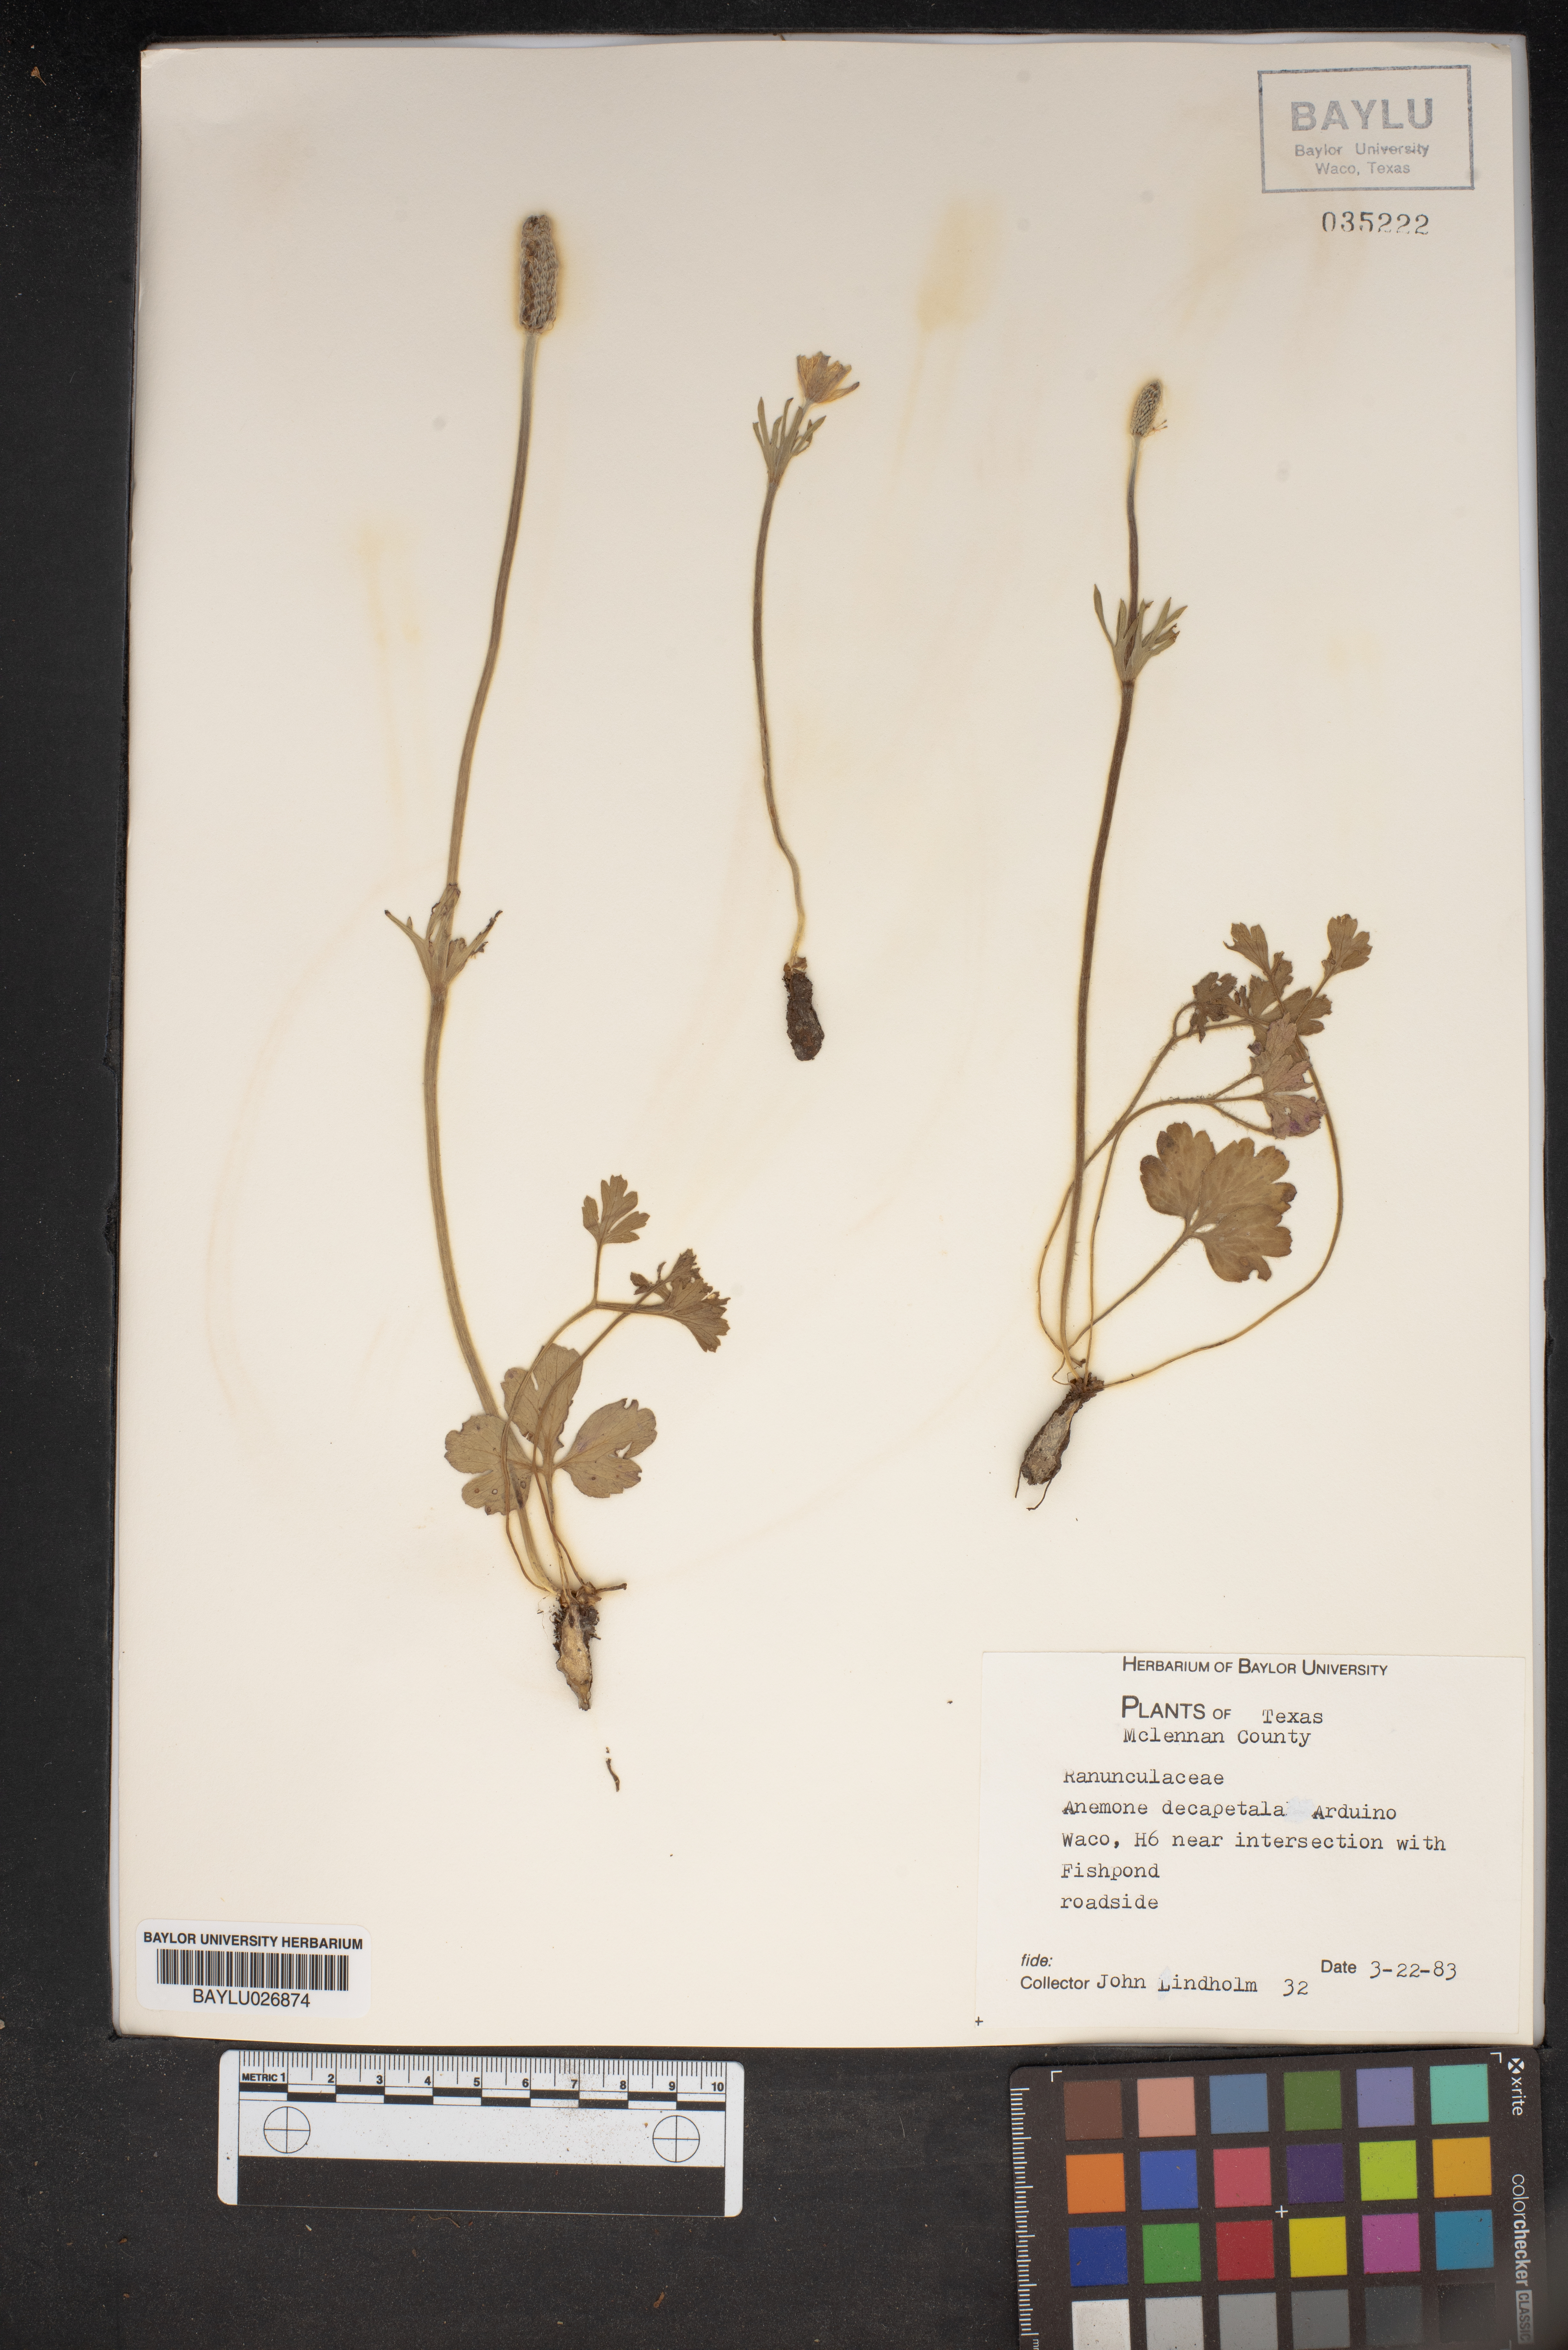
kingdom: Plantae
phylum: Tracheophyta
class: Magnoliopsida
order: Ranunculales
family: Ranunculaceae
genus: Anemone
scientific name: Anemone decapetala
